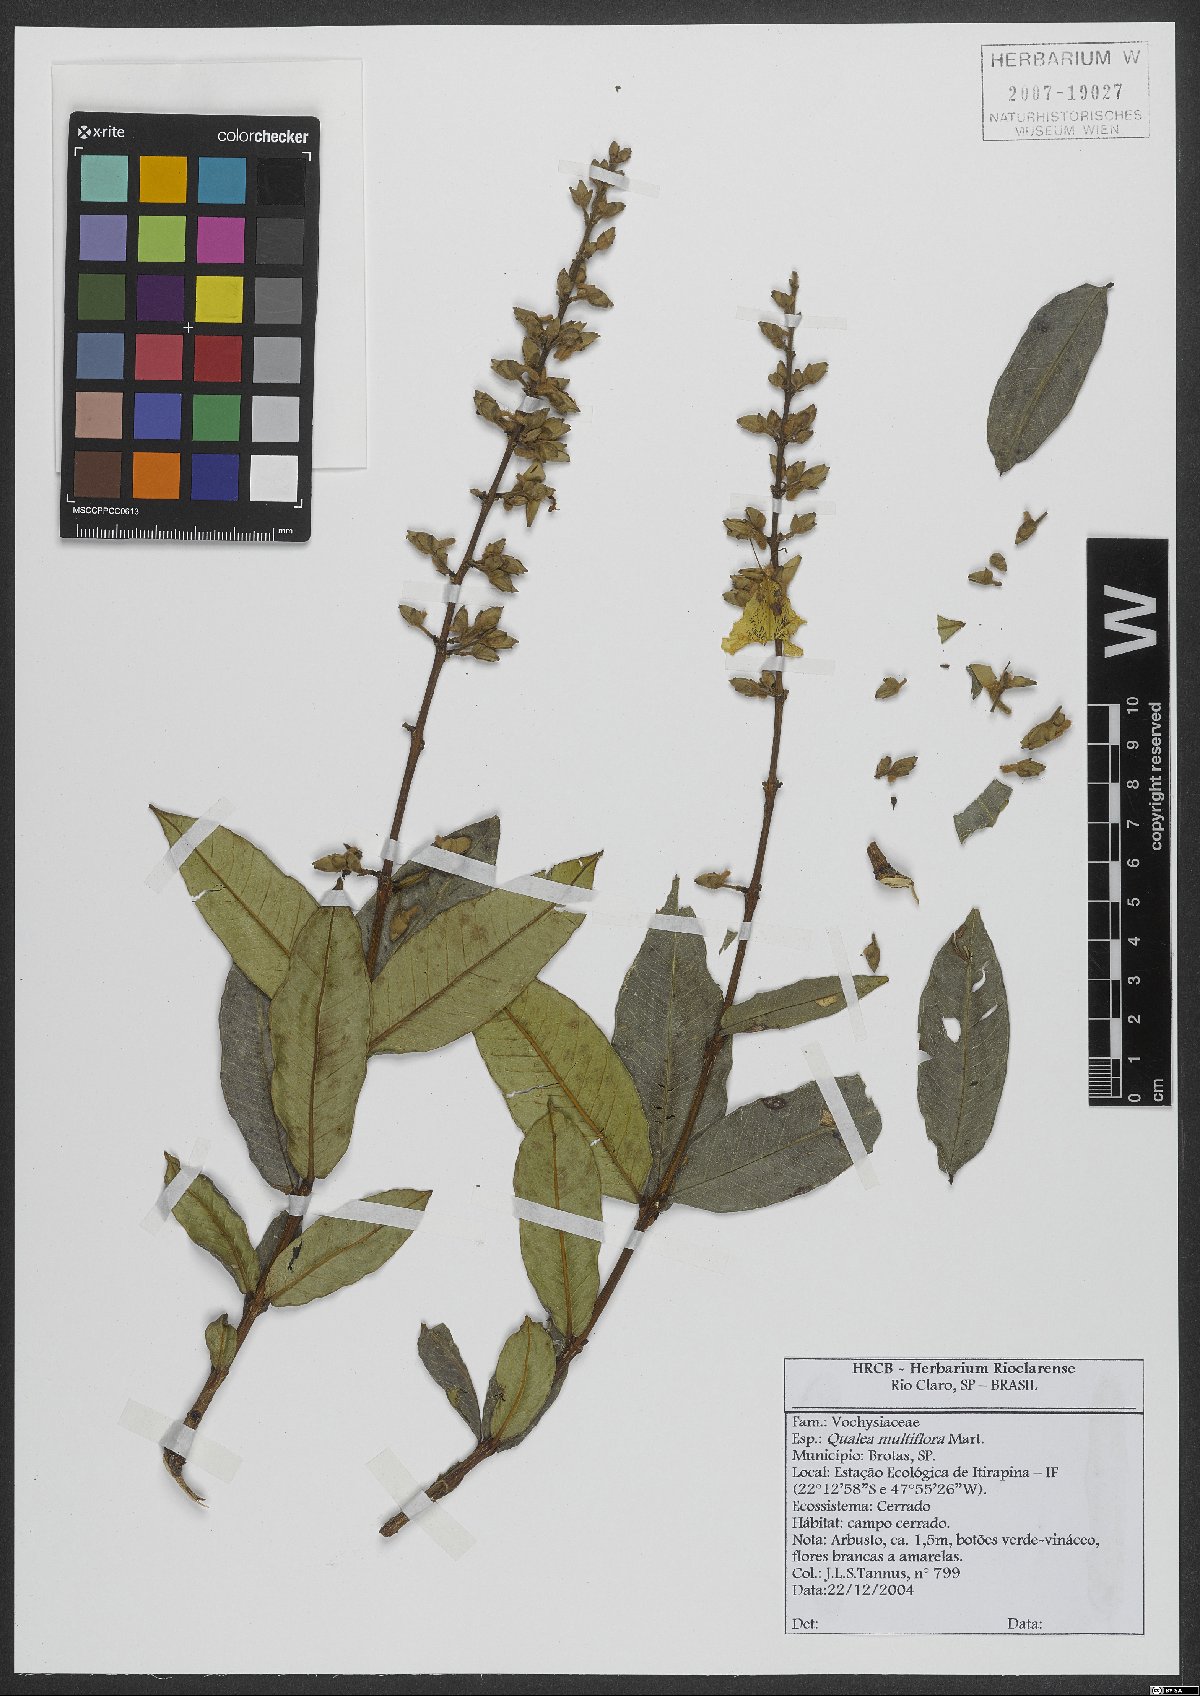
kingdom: Plantae
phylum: Tracheophyta
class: Magnoliopsida
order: Myrtales
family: Vochysiaceae
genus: Qualea
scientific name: Qualea multiflora
